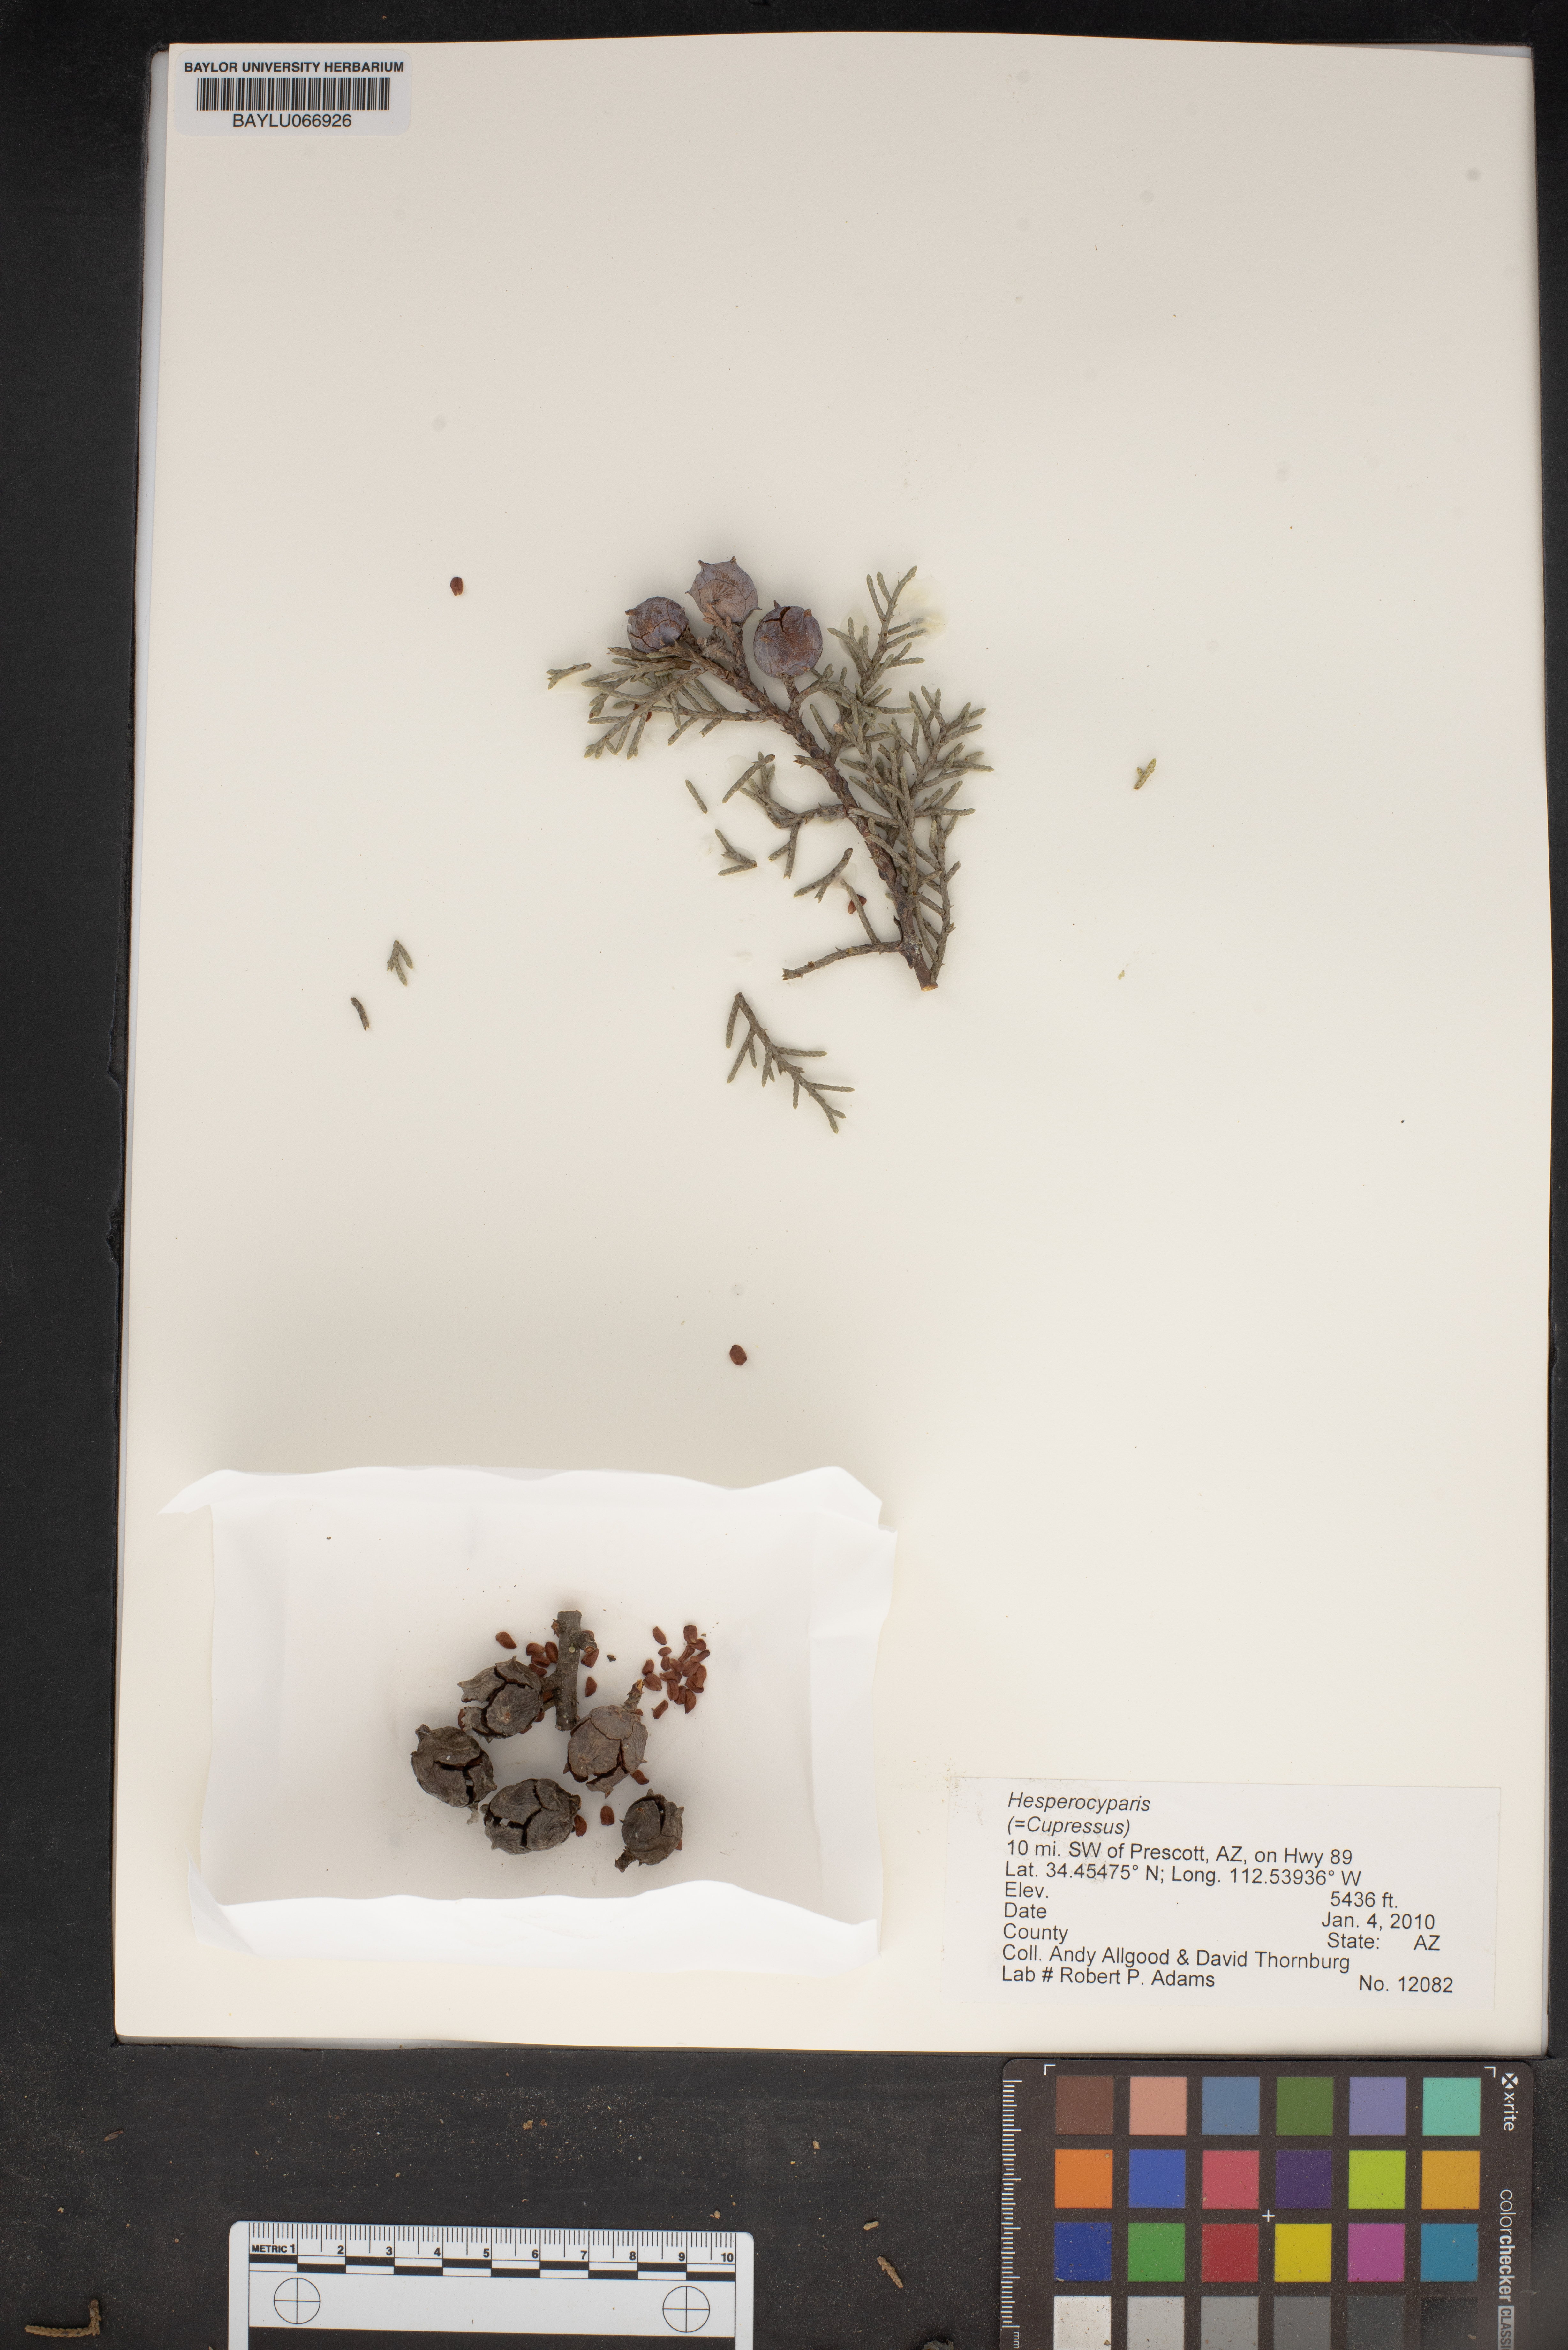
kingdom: Plantae
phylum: Tracheophyta
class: Pinopsida
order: Pinales
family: Cupressaceae
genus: Hesperocyparis
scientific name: Hesperocyparis
